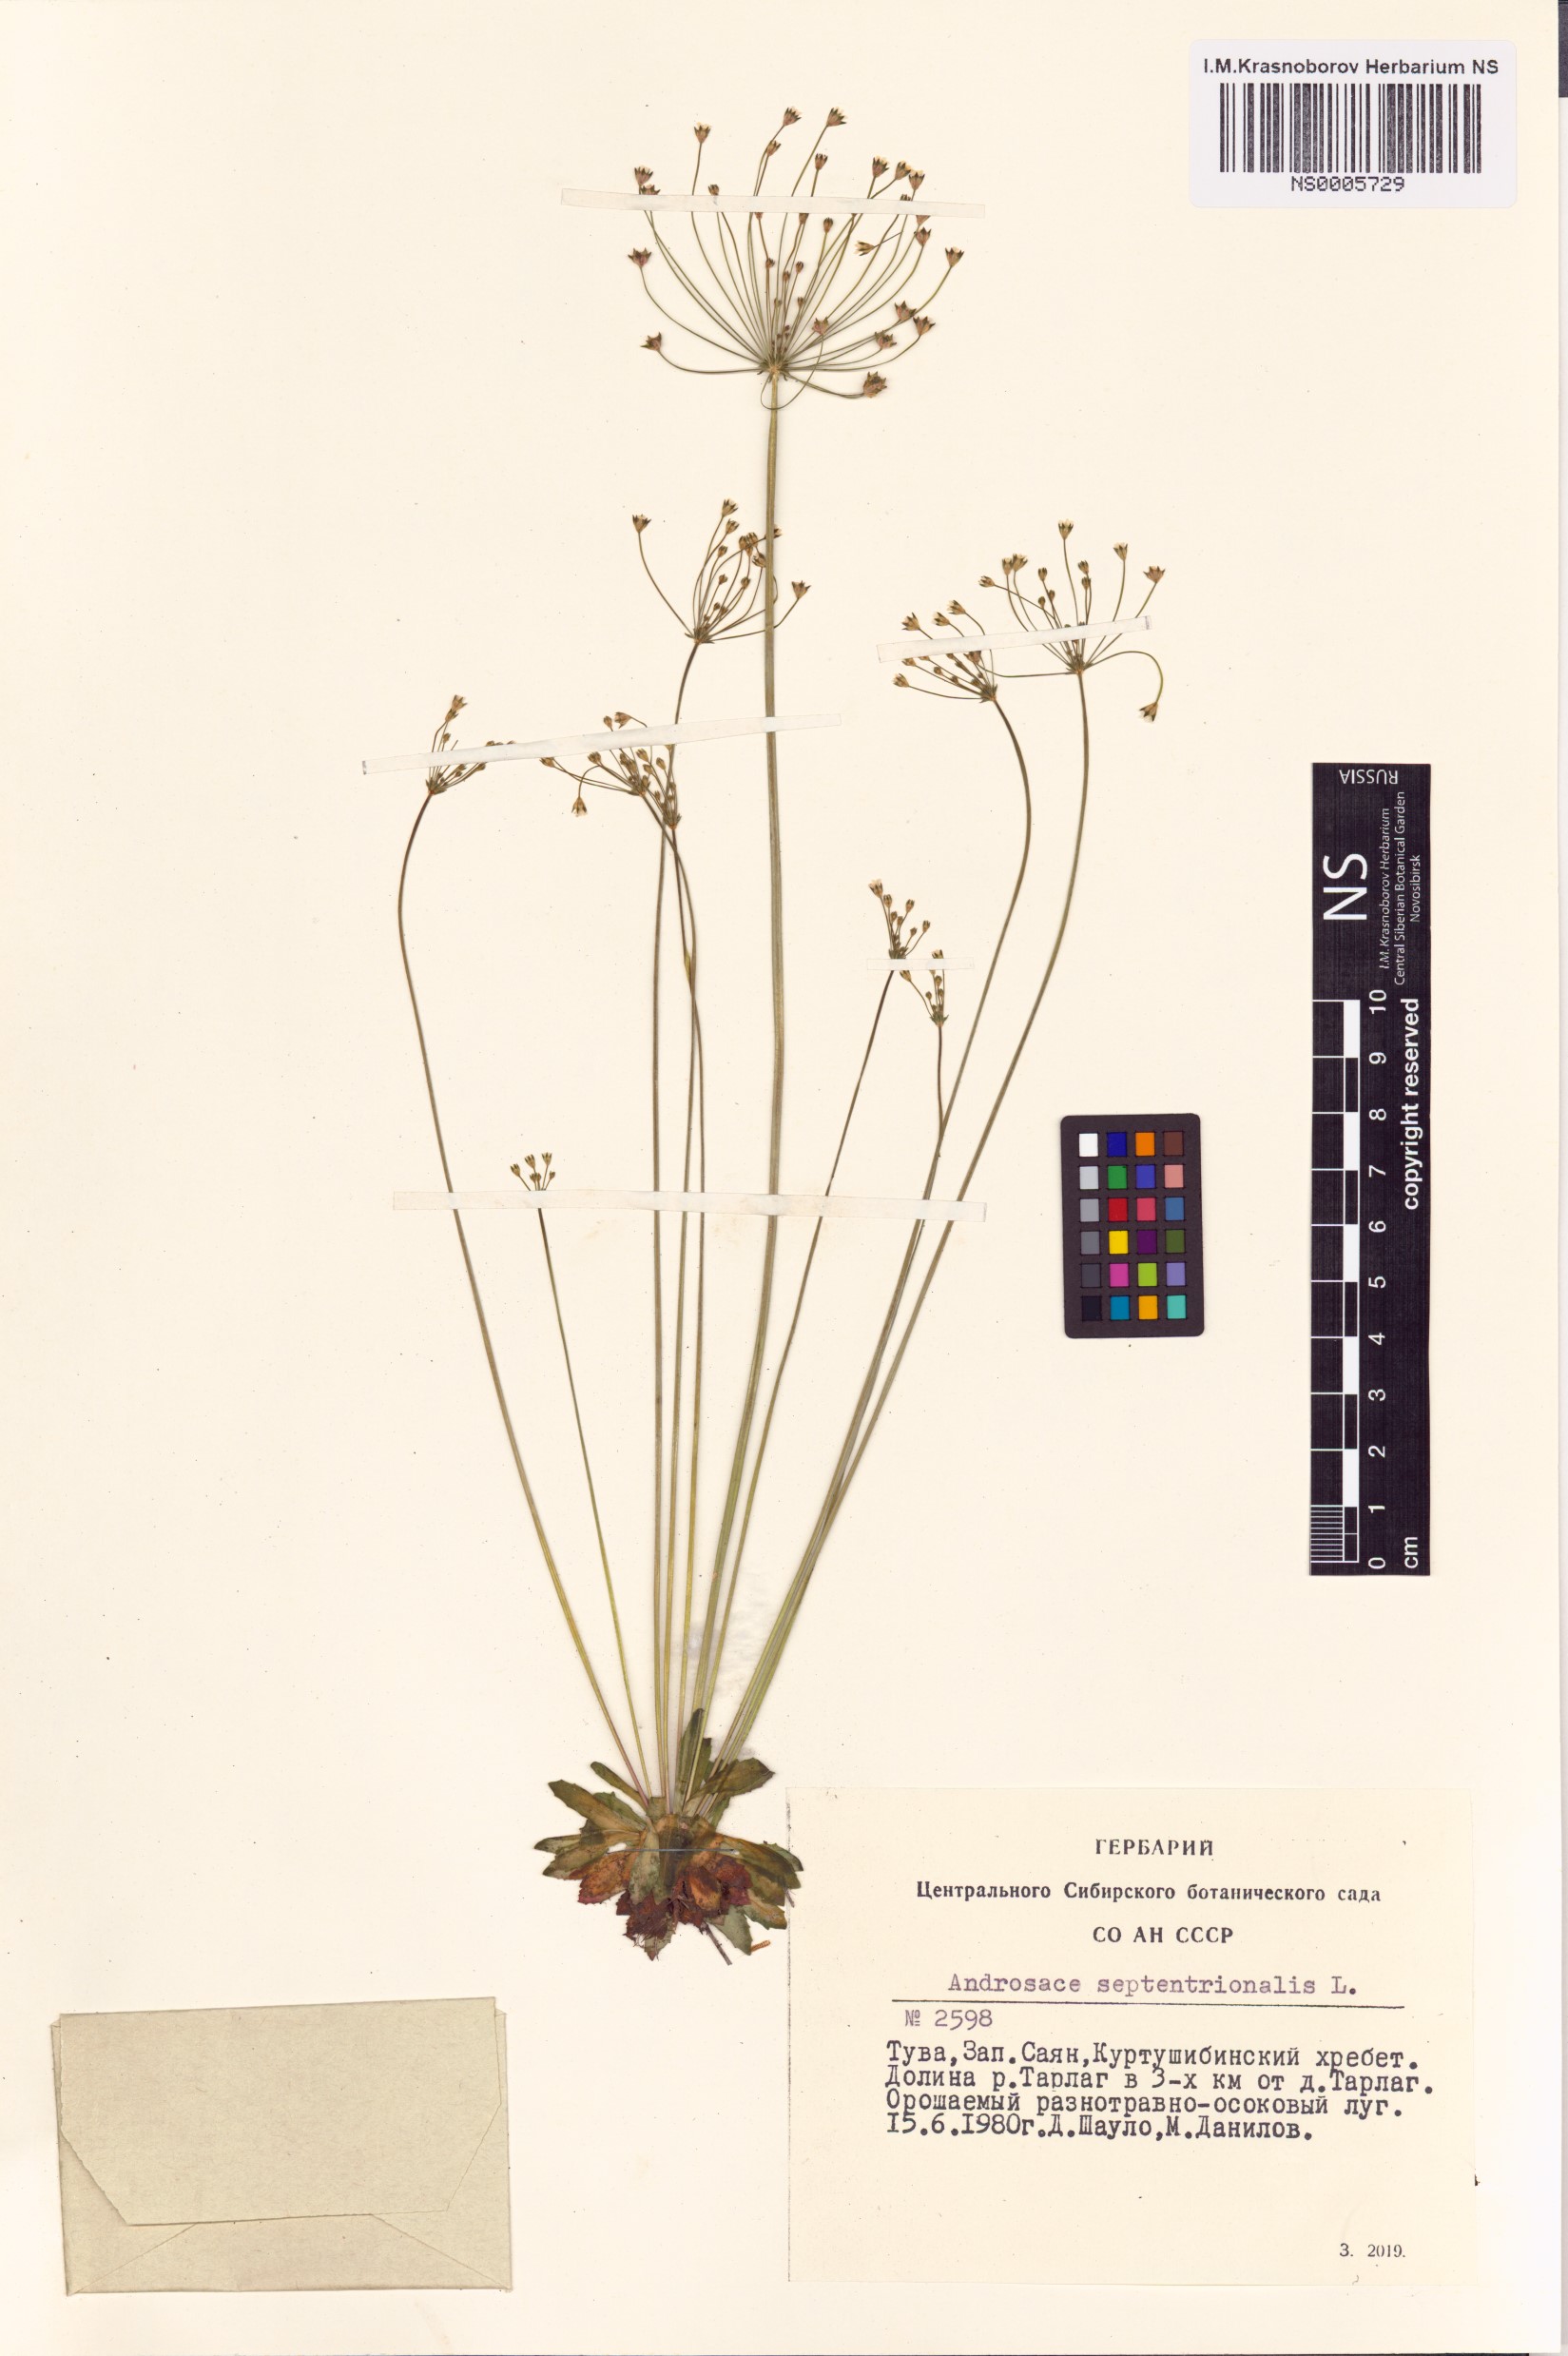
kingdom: Plantae
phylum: Tracheophyta
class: Magnoliopsida
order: Ericales
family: Primulaceae
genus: Androsace
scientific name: Androsace septentrionalis
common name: Hairy northern fairy-candelabra
